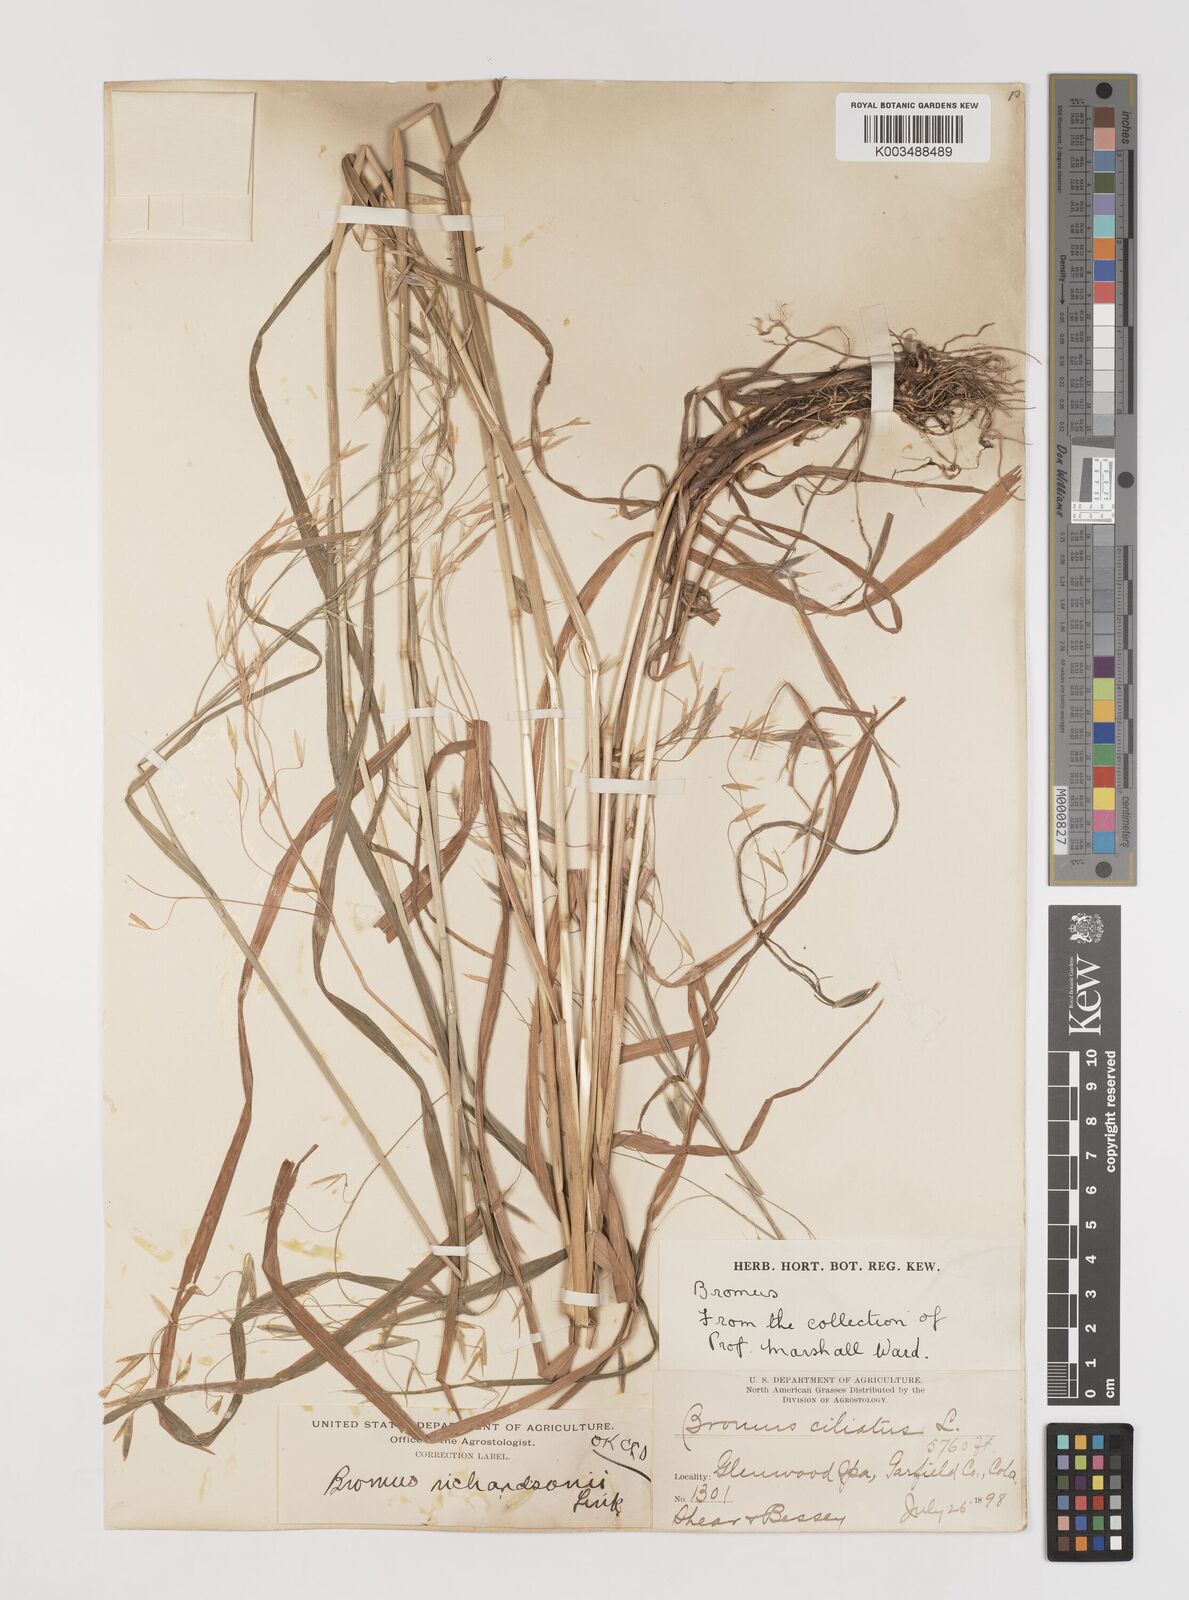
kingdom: Plantae
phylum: Tracheophyta
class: Liliopsida
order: Poales
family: Poaceae
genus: Bromus
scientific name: Bromus richardsonii
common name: Richardson's brome
